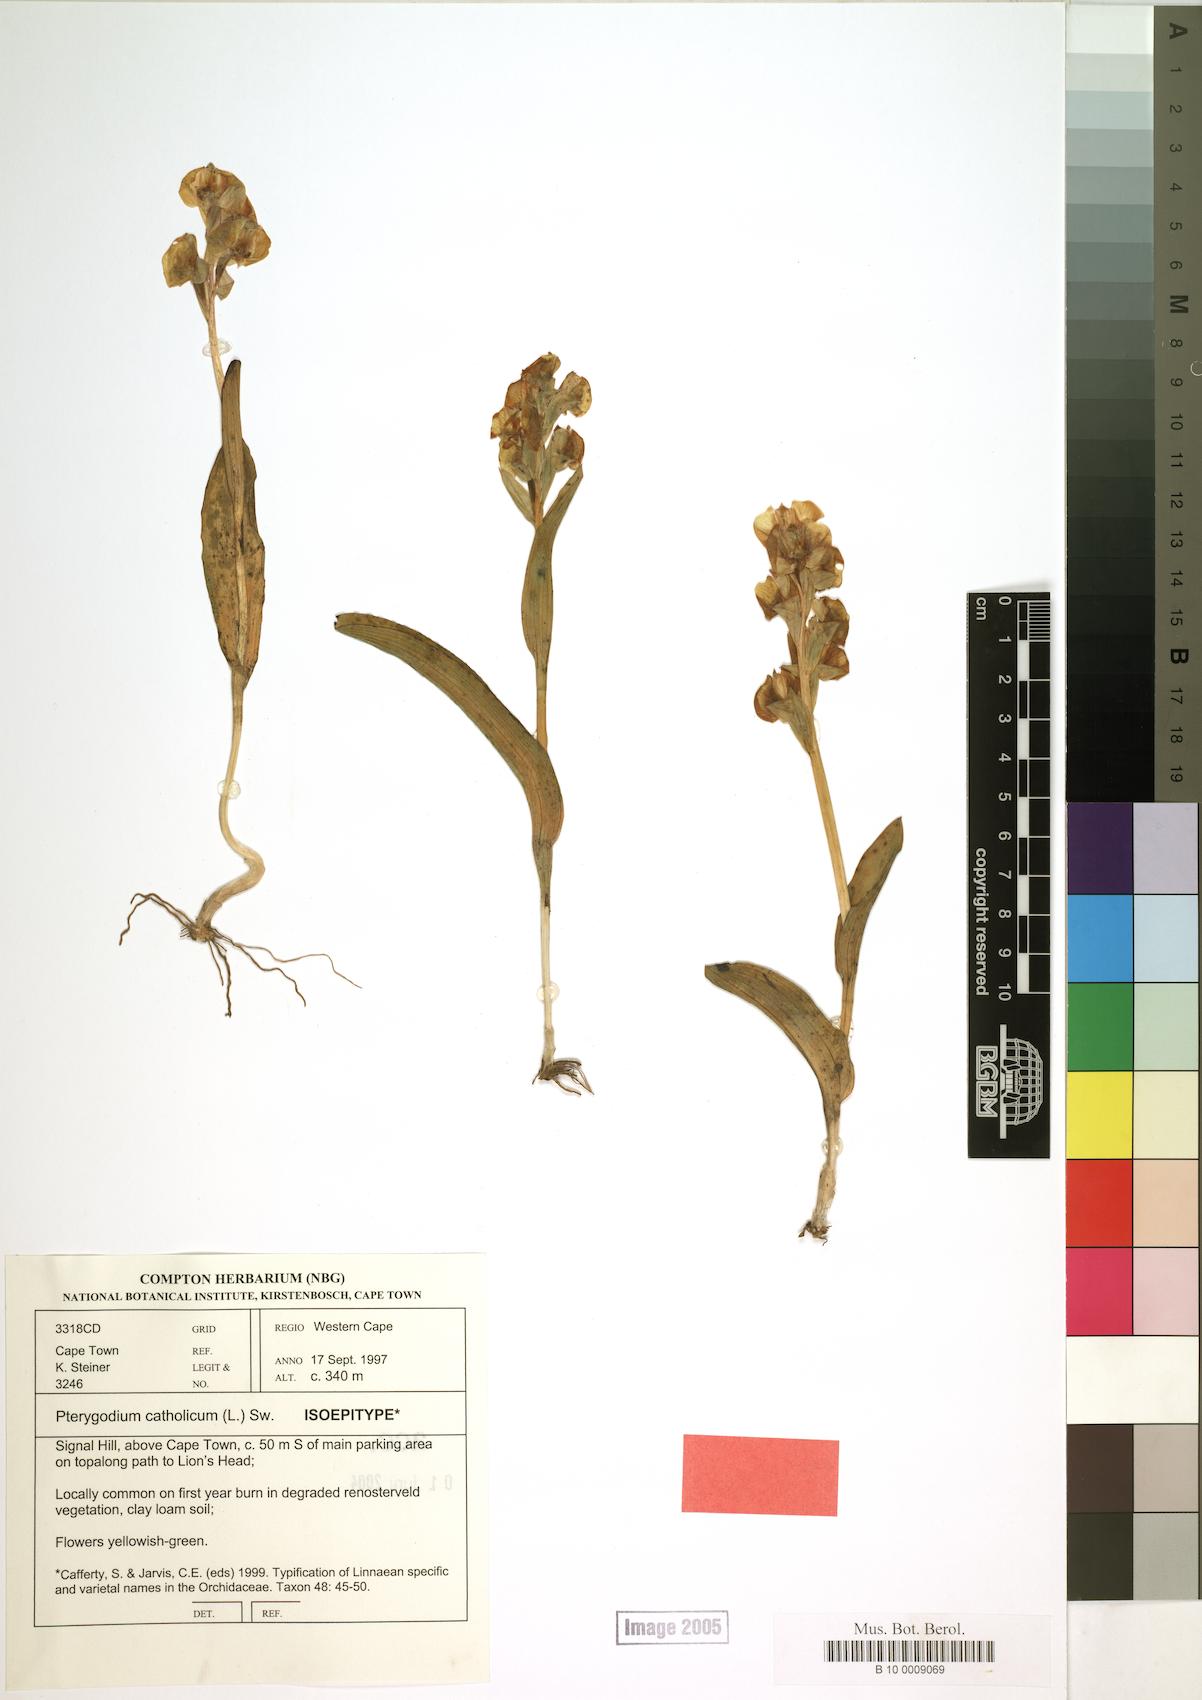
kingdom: Plantae
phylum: Tracheophyta
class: Liliopsida
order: Asparagales
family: Orchidaceae
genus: Pterygodium
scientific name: Pterygodium catholicum
